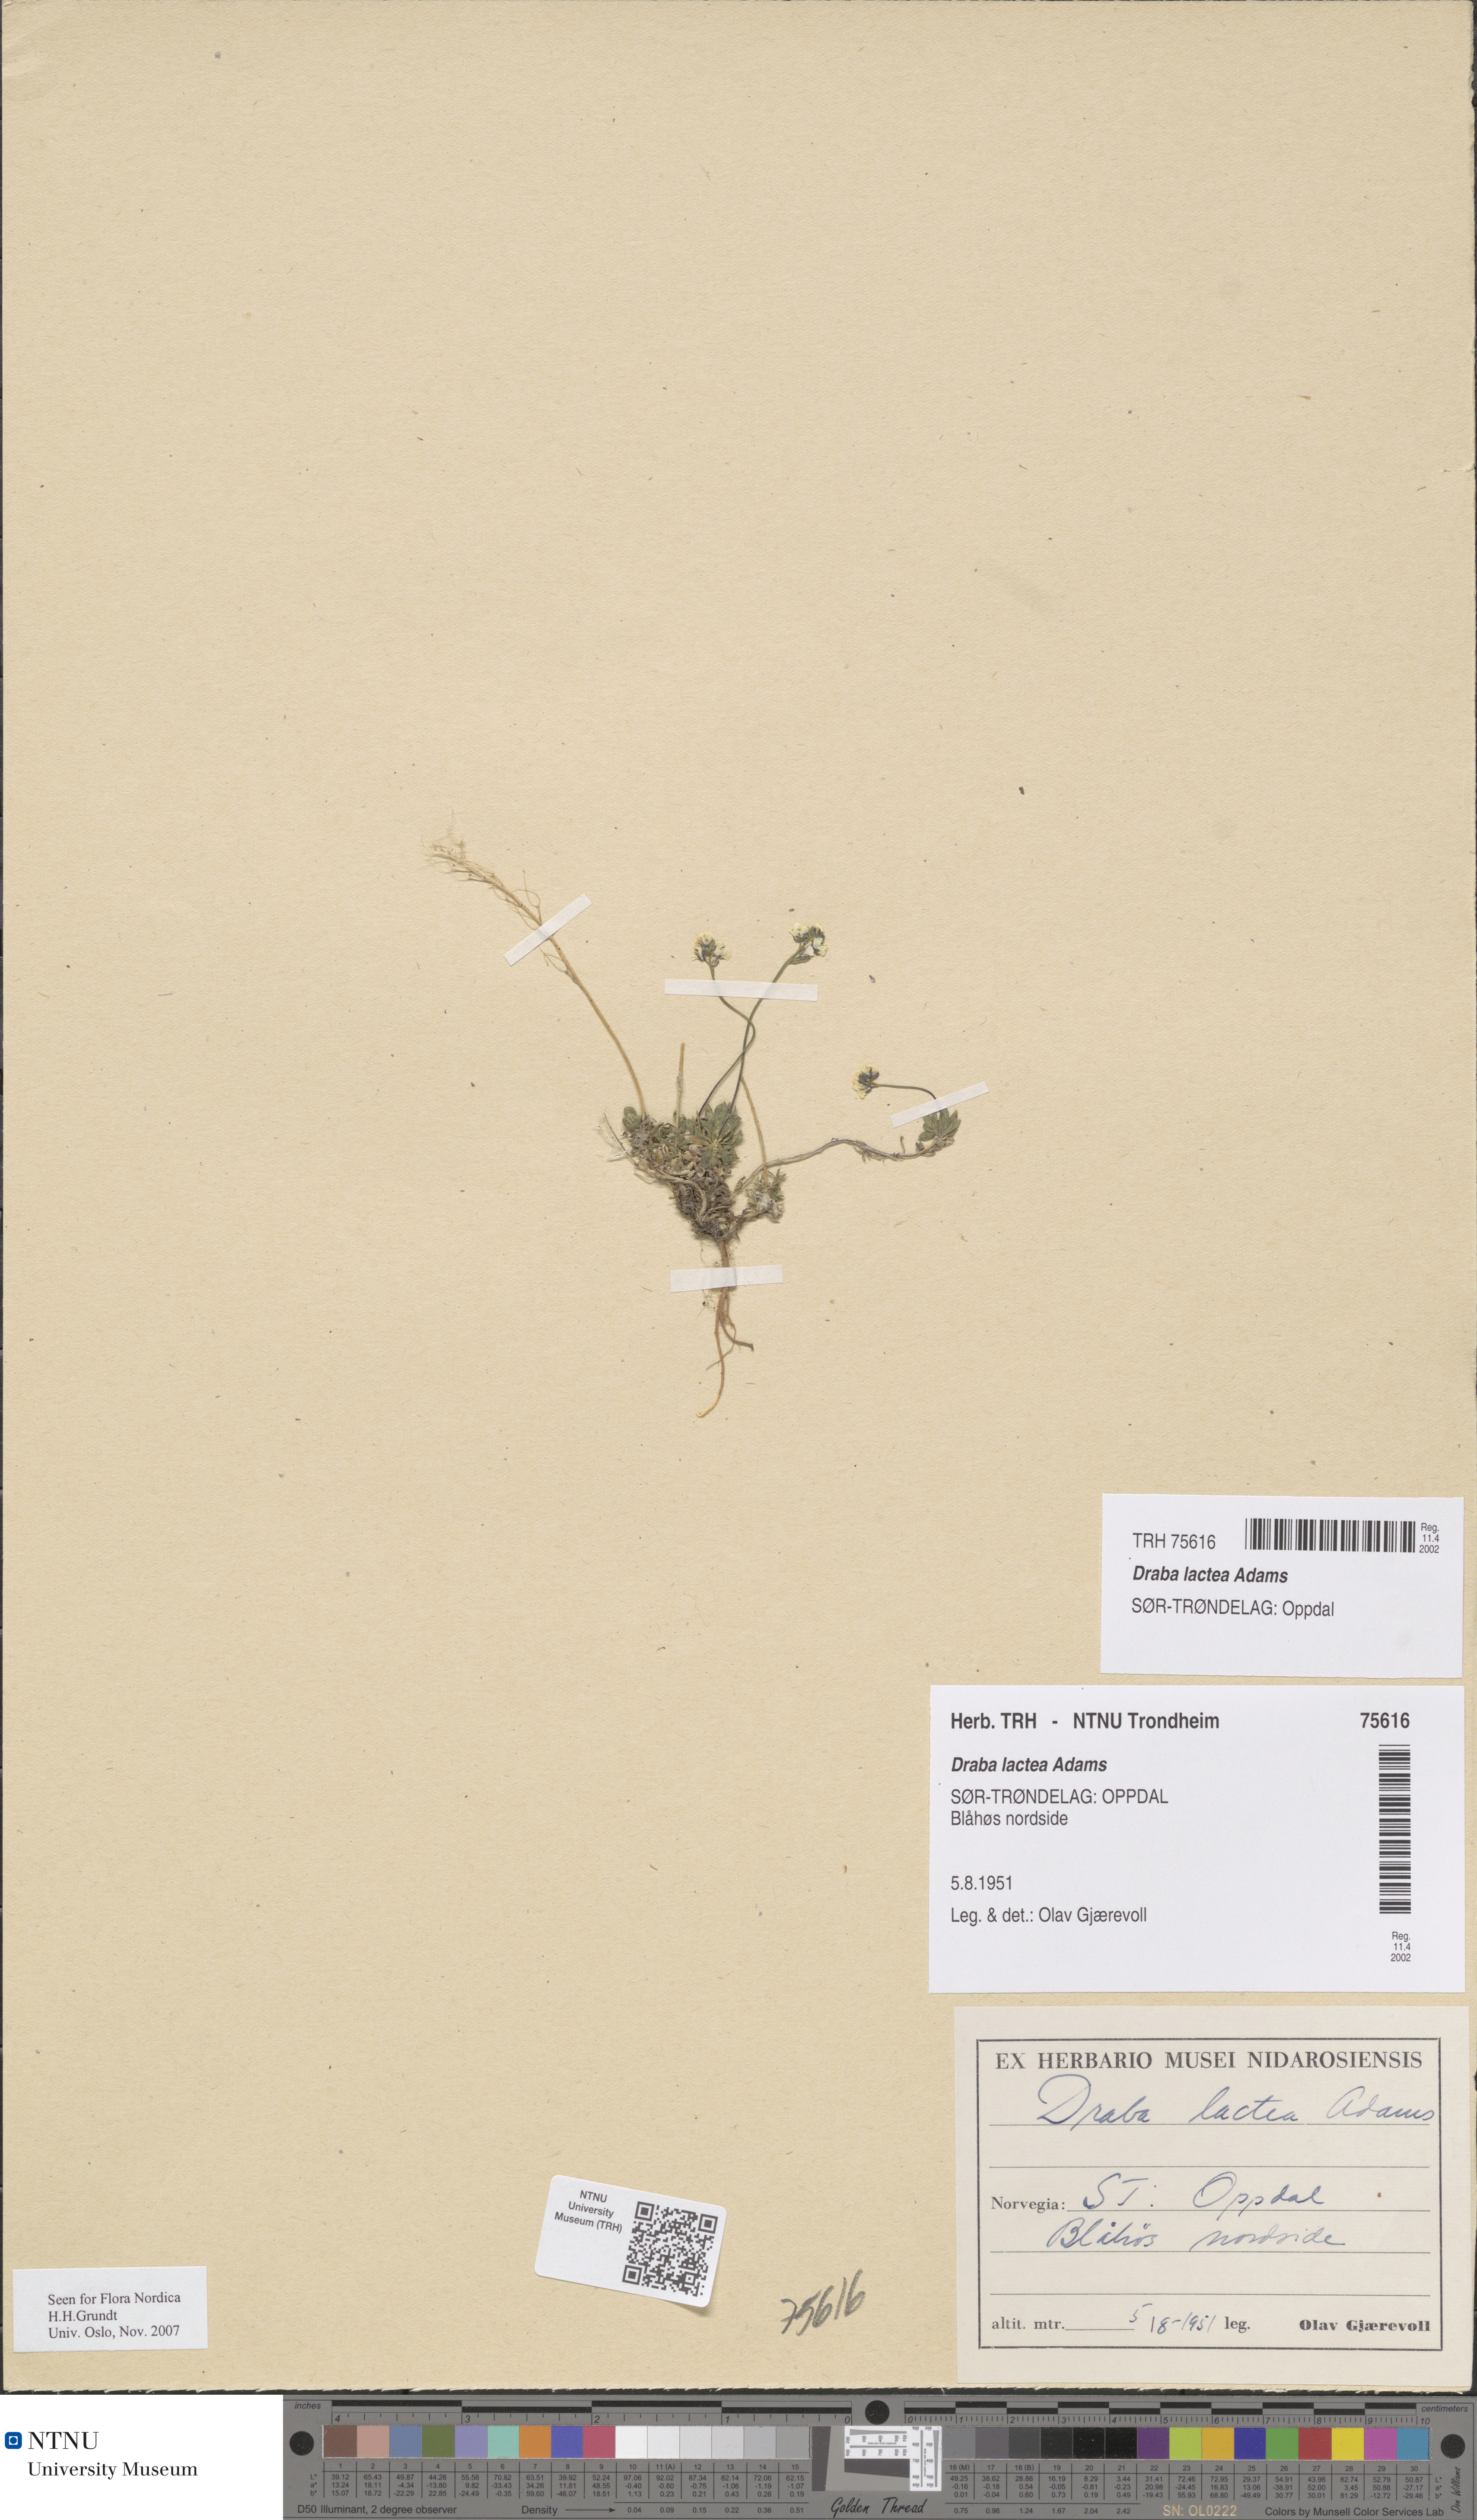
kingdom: Plantae
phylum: Tracheophyta
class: Magnoliopsida
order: Brassicales
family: Brassicaceae
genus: Draba
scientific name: Draba lactea
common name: Milky draba
